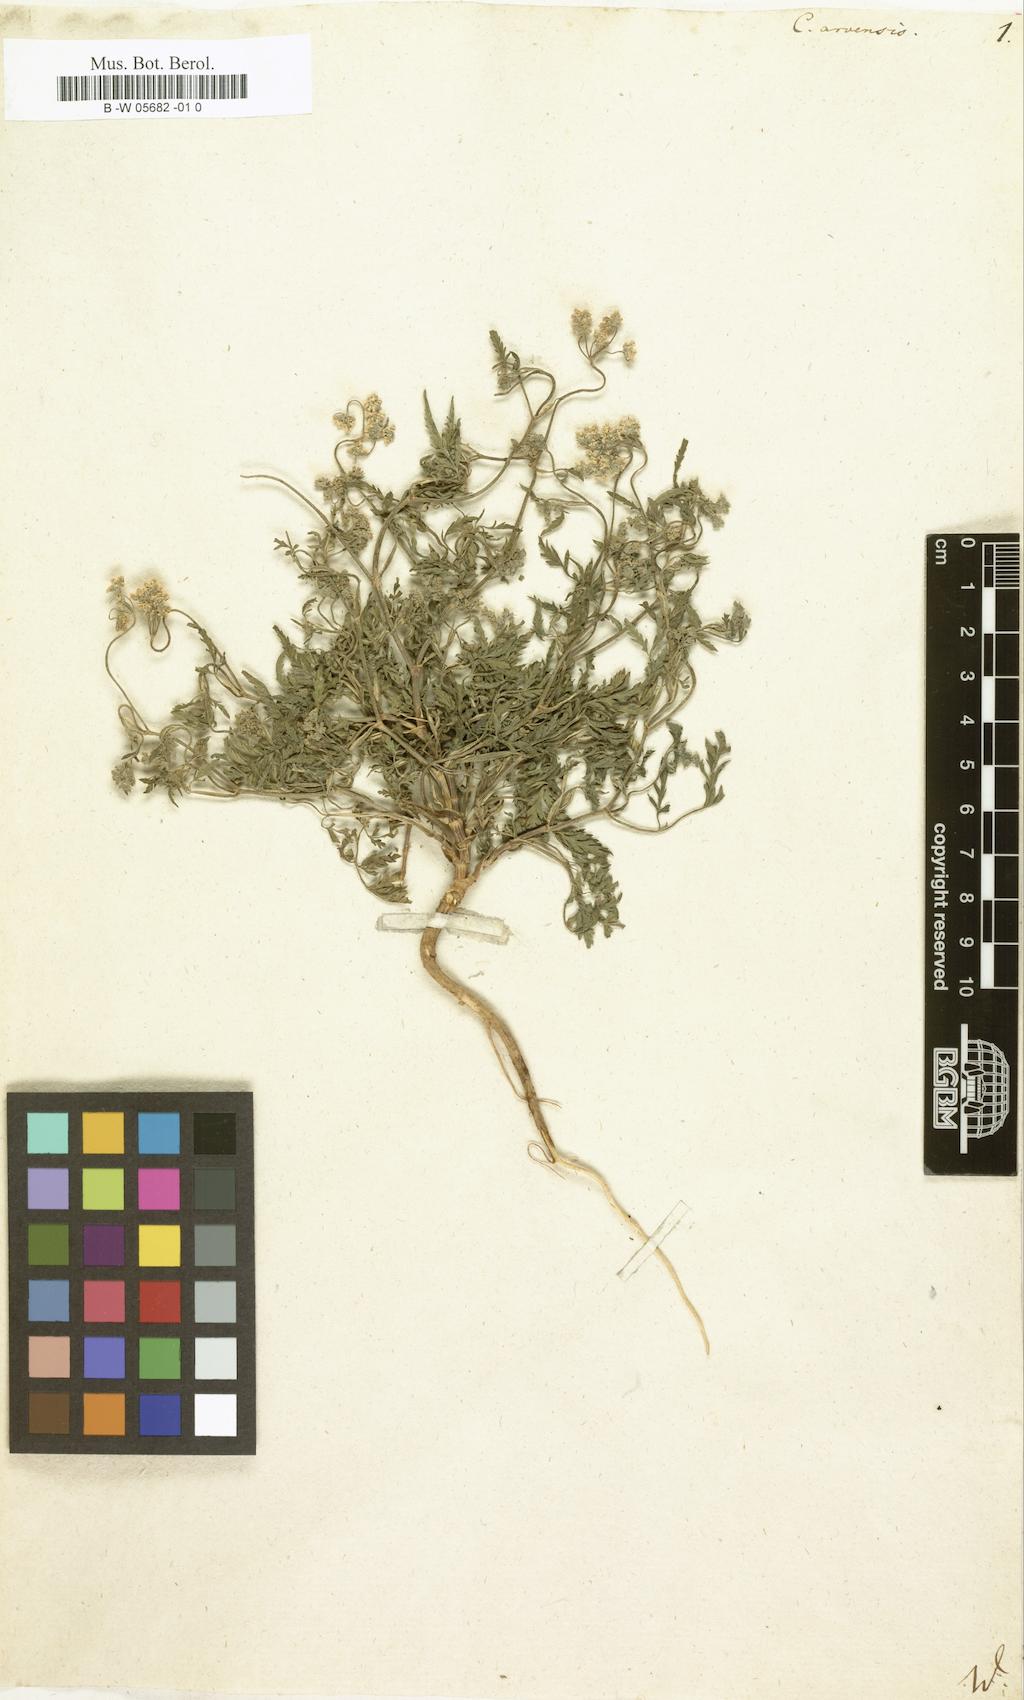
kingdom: Plantae
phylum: Tracheophyta
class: Magnoliopsida
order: Apiales
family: Apiaceae
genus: Torilis
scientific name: Torilis arvensis
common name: Spreading hedge-parsley
